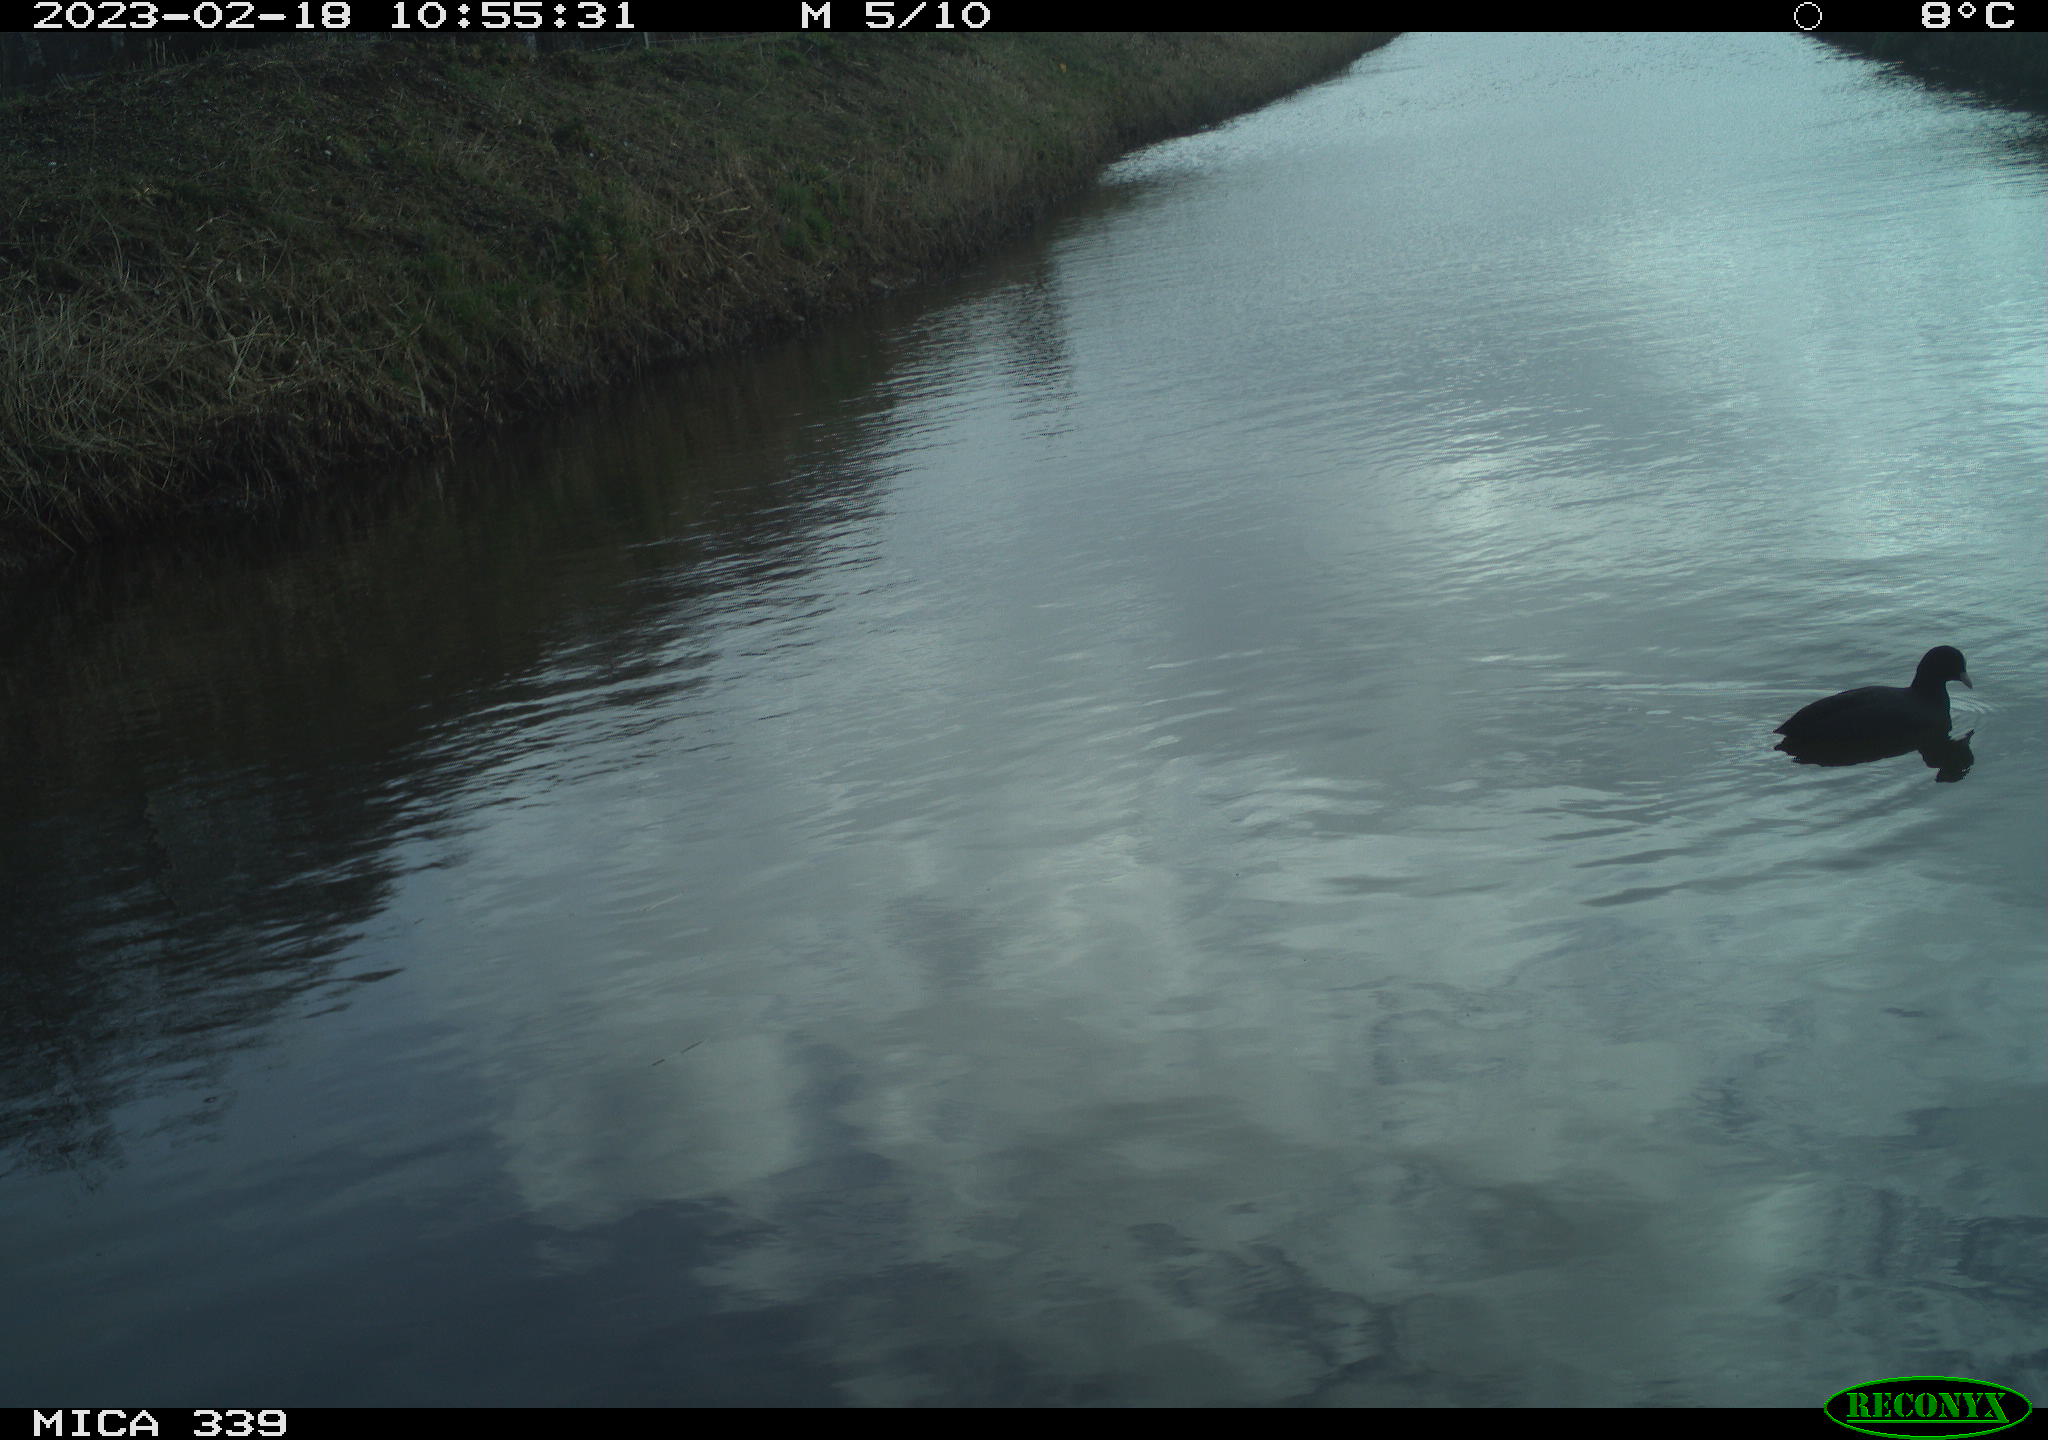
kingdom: Animalia
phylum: Chordata
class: Aves
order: Gruiformes
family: Rallidae
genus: Fulica
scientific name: Fulica atra
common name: Eurasian coot
